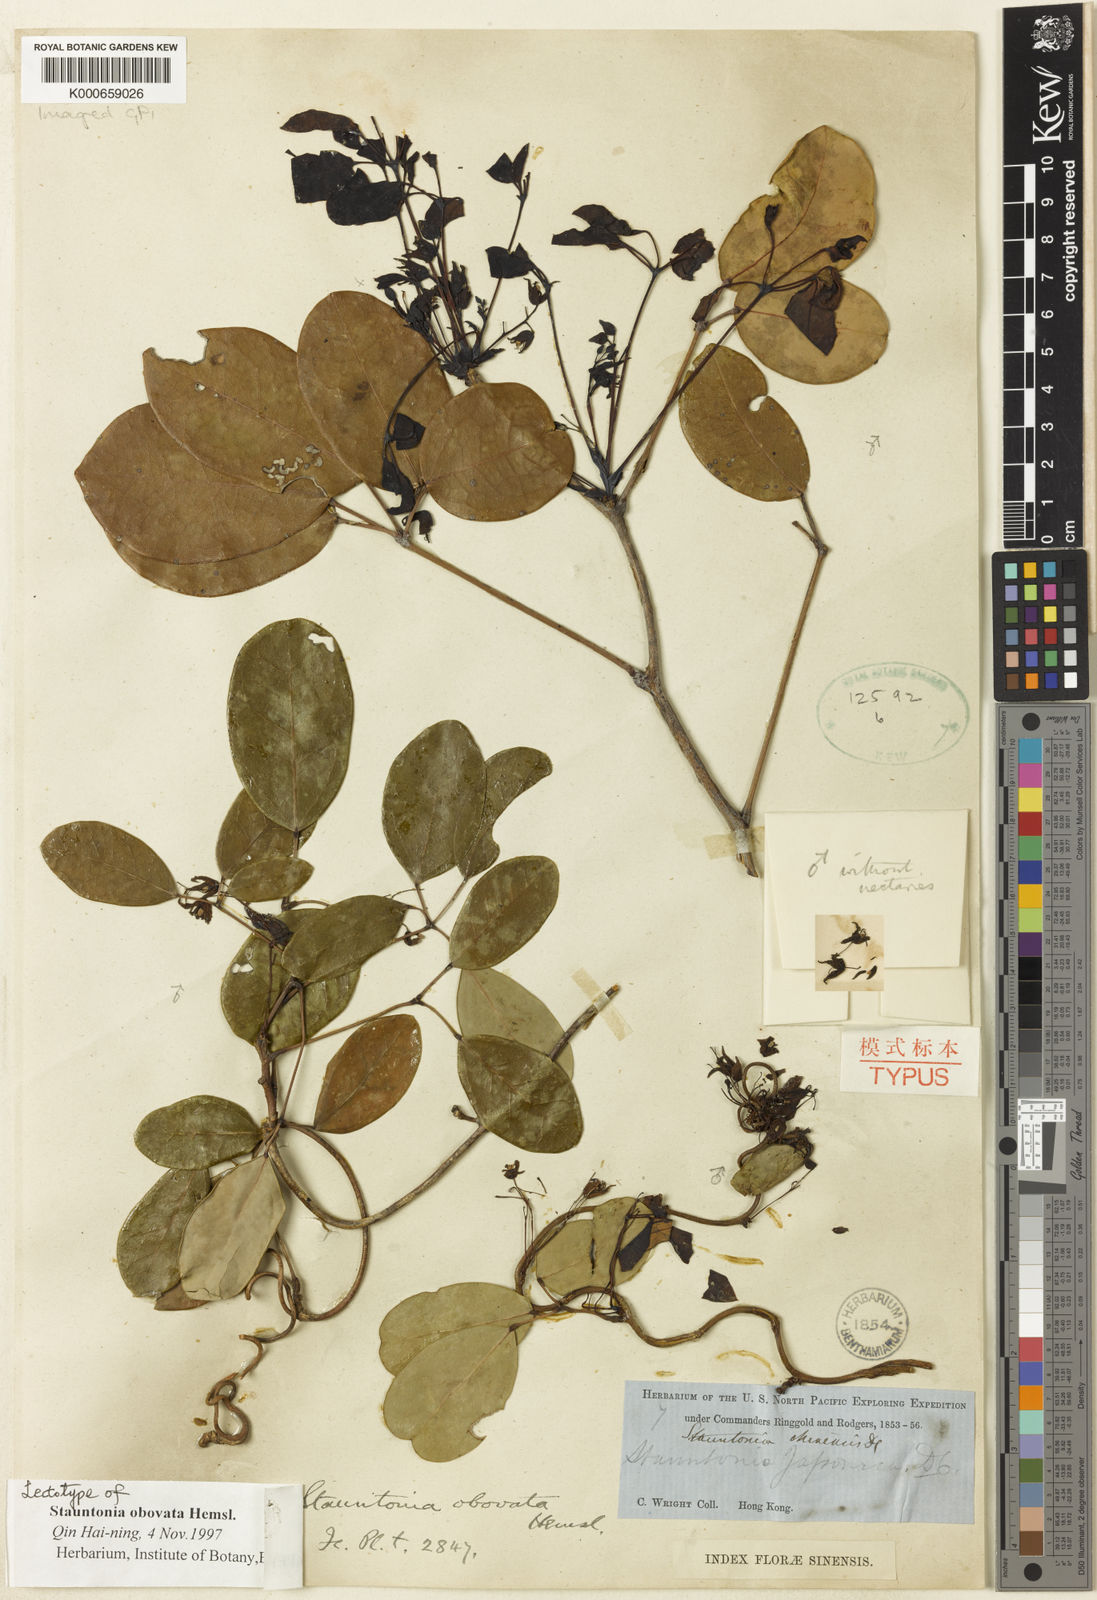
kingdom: Plantae
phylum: Tracheophyta
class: Magnoliopsida
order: Ranunculales
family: Lardizabalaceae
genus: Stauntonia
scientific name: Stauntonia obovata
